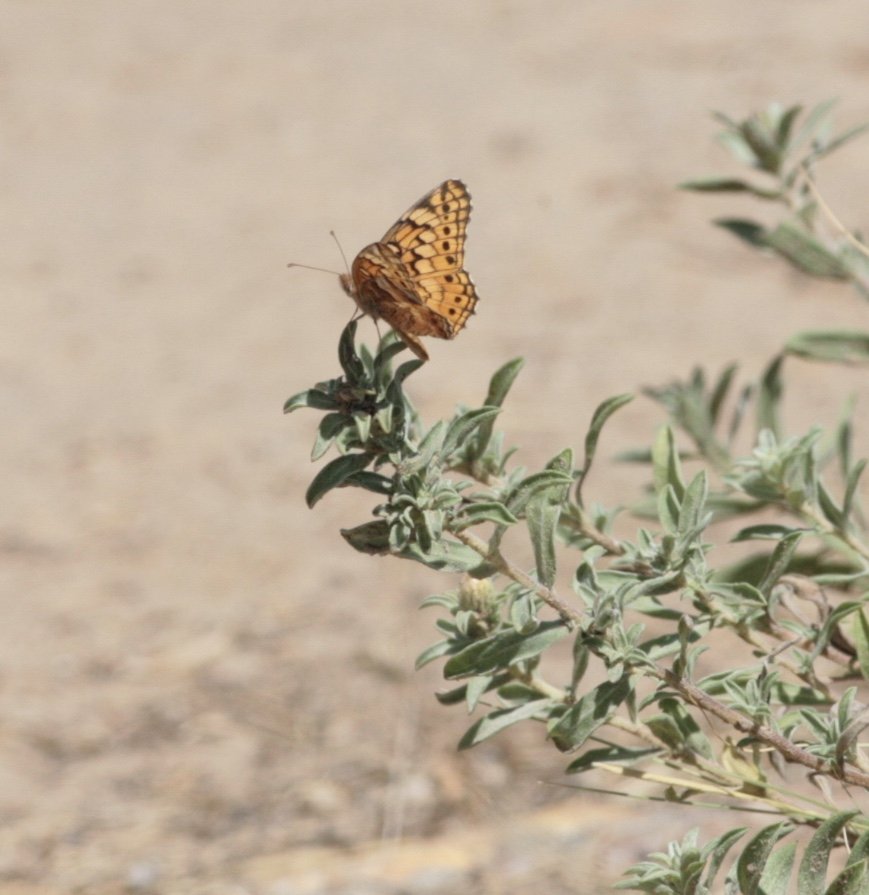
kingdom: Animalia
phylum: Arthropoda
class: Insecta
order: Lepidoptera
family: Nymphalidae
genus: Euptoieta
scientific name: Euptoieta claudia
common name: Variegated Fritillary
